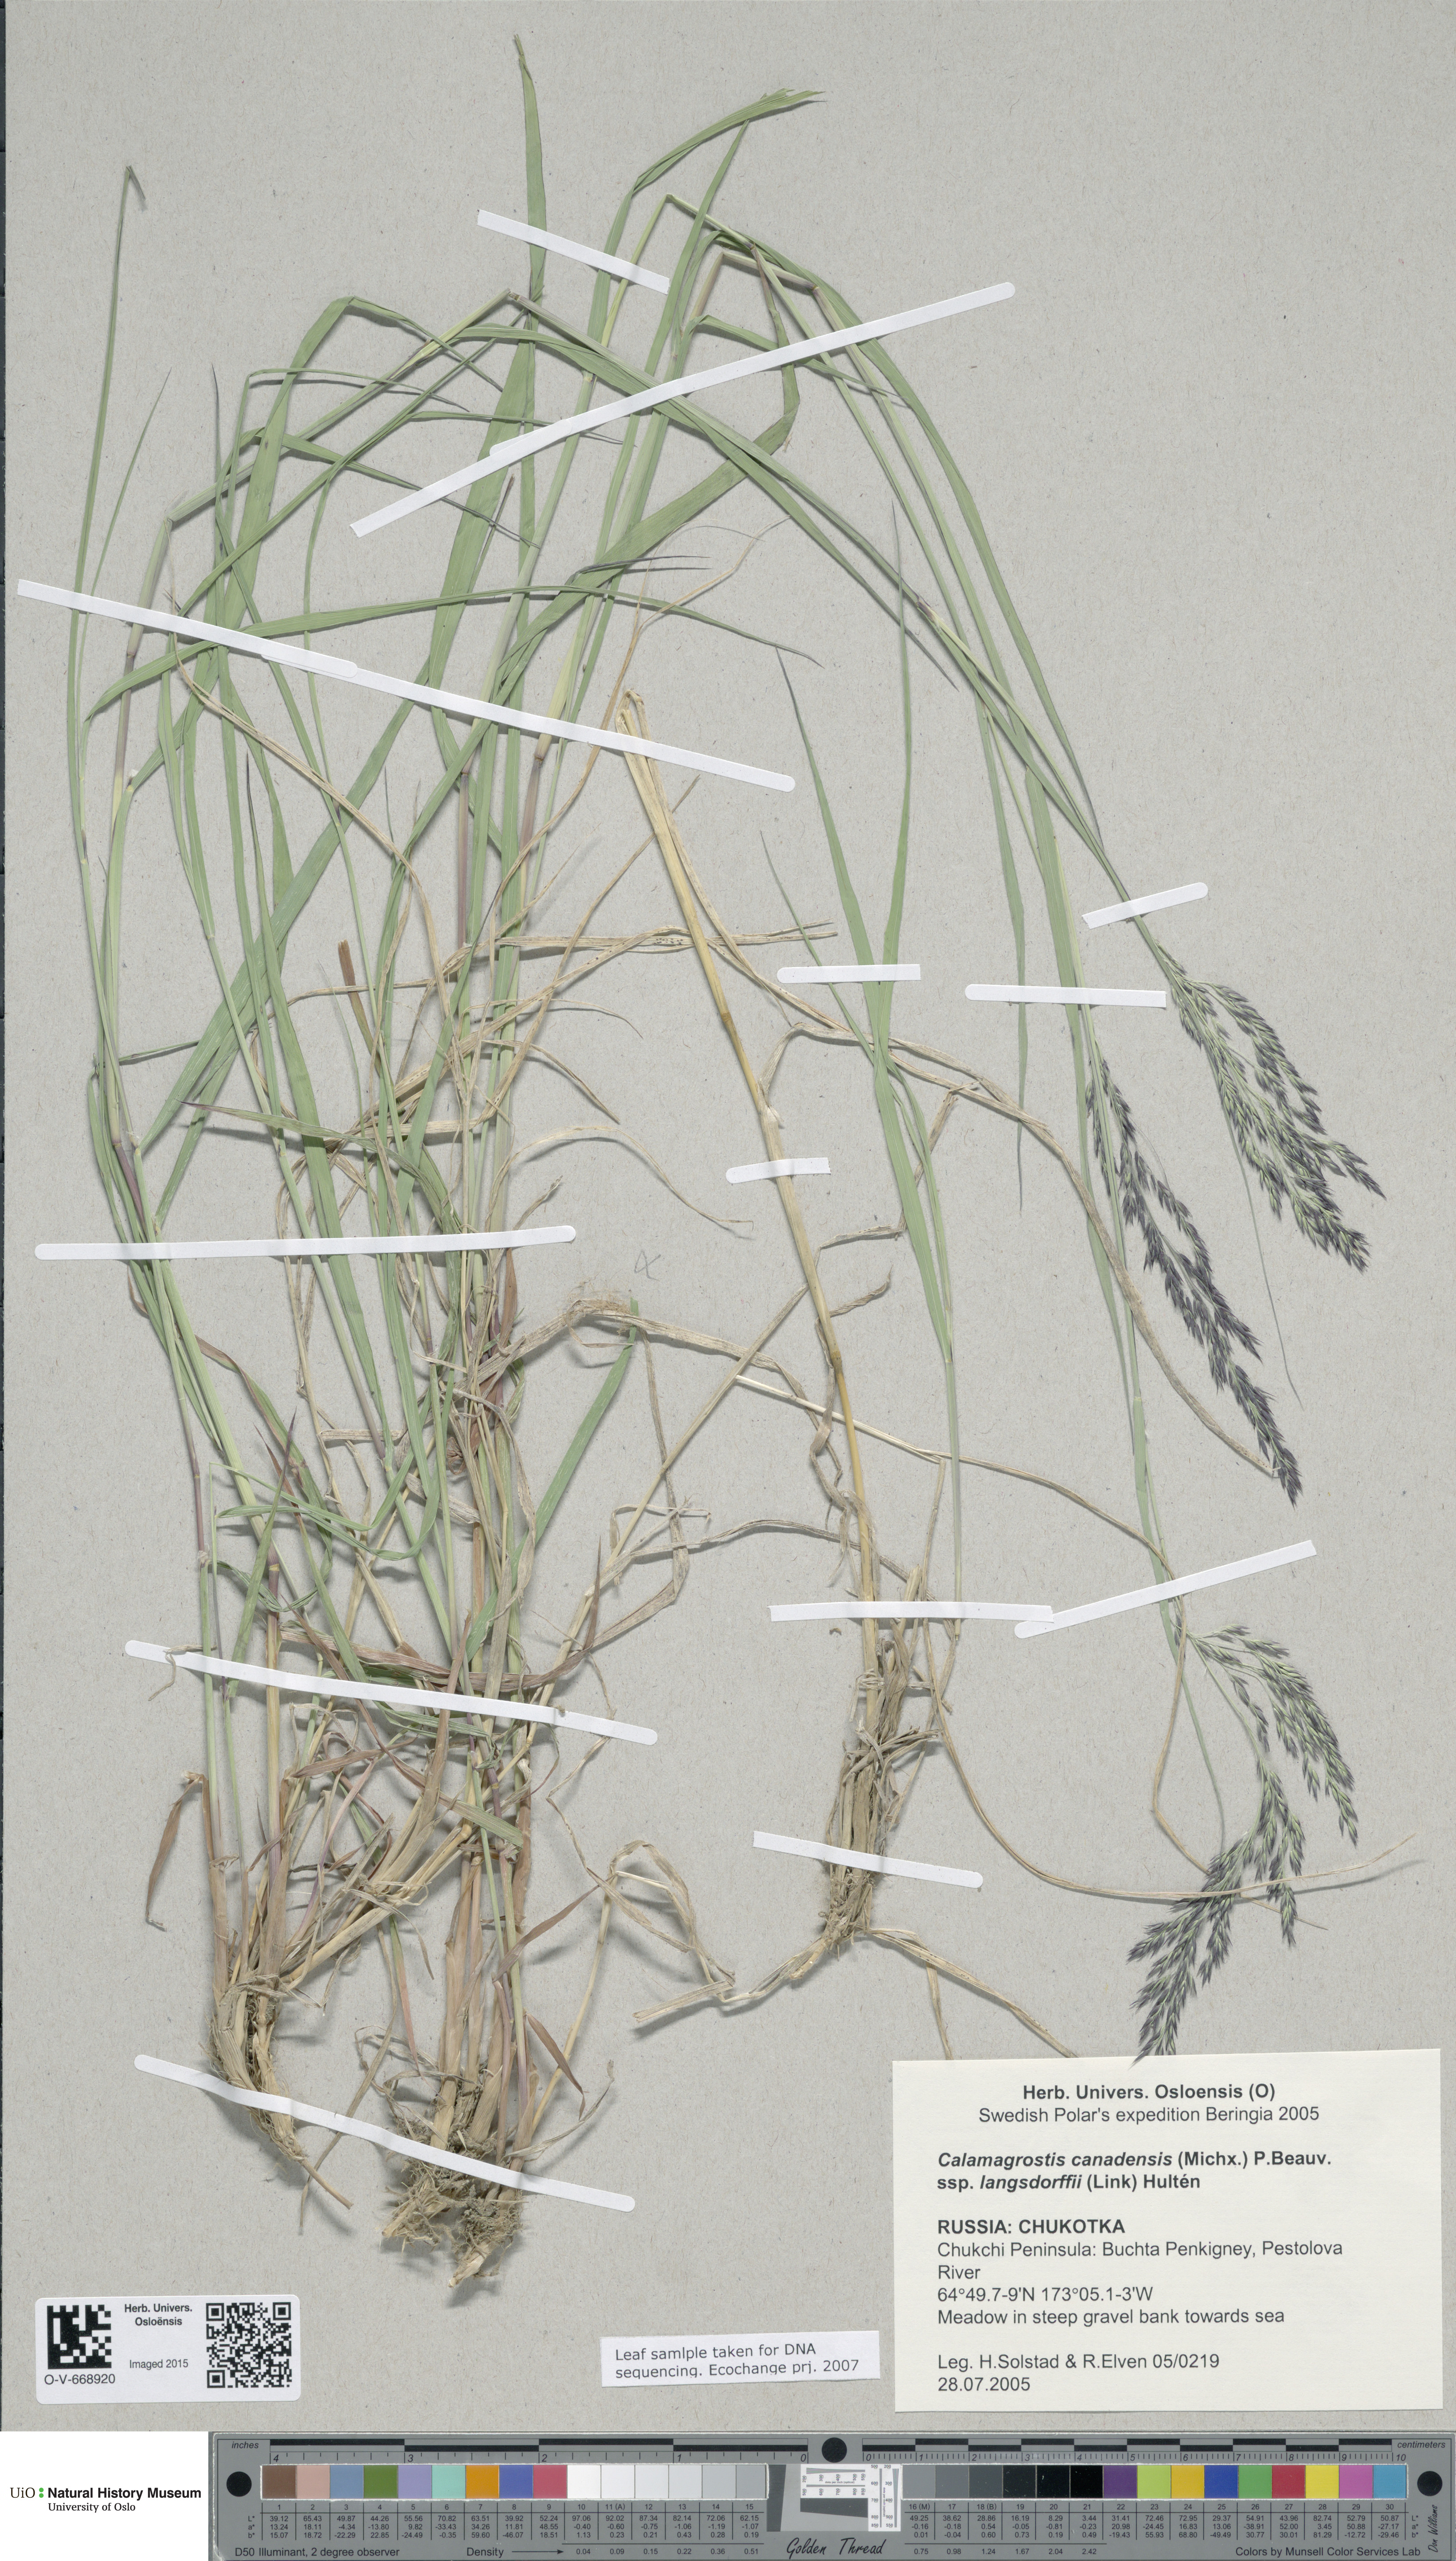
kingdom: Plantae
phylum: Tracheophyta
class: Liliopsida
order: Poales
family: Poaceae
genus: Calamagrostis
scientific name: Calamagrostis purpurea
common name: Scandinavian small-reed
